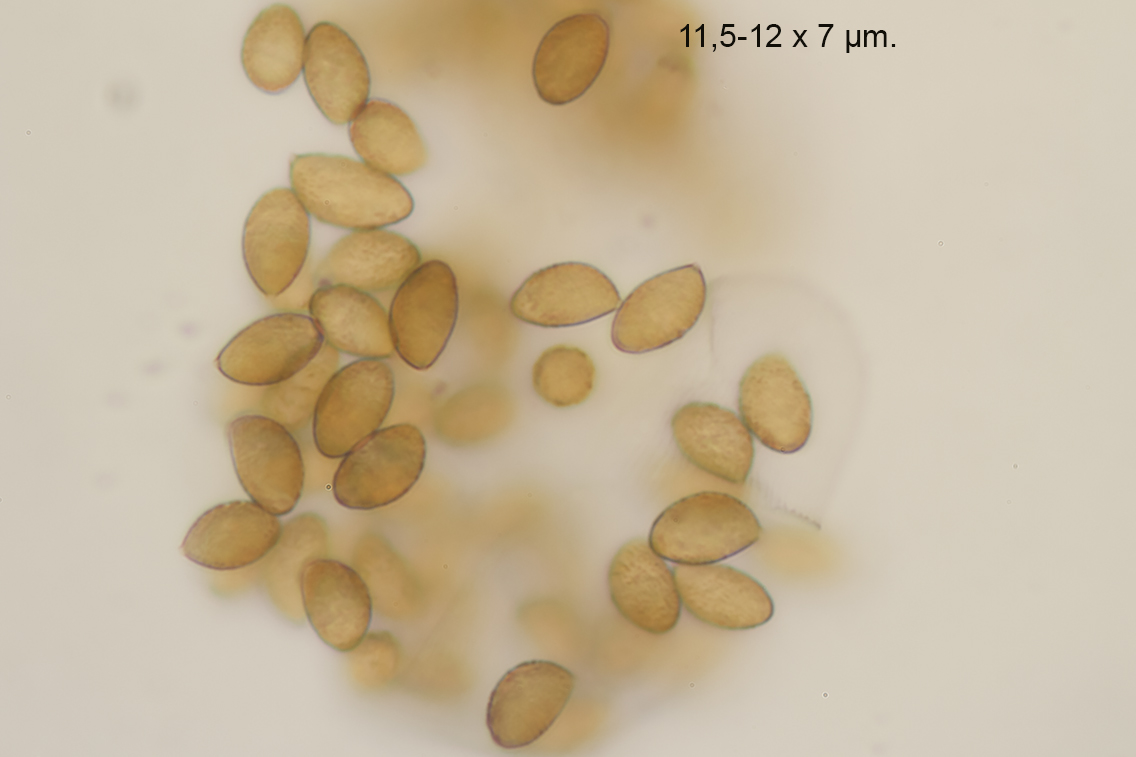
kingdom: Fungi
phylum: Basidiomycota
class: Agaricomycetes
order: Agaricales
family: Cortinariaceae
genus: Phlegmacium
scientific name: Phlegmacium vulpinum
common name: ringbæltet slørhat
